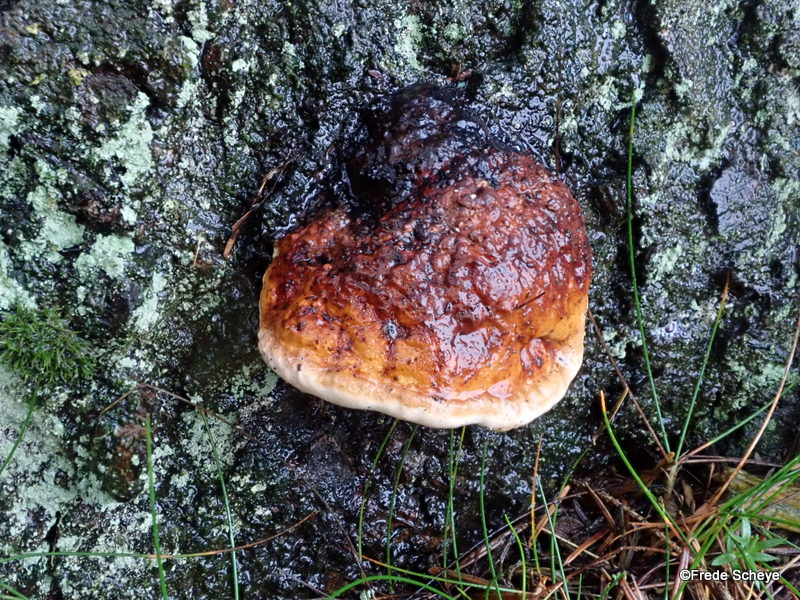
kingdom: Fungi
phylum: Basidiomycota
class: Agaricomycetes
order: Polyporales
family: Fomitopsidaceae
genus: Fomitopsis
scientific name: Fomitopsis pinicola
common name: randbæltet hovporesvamp
